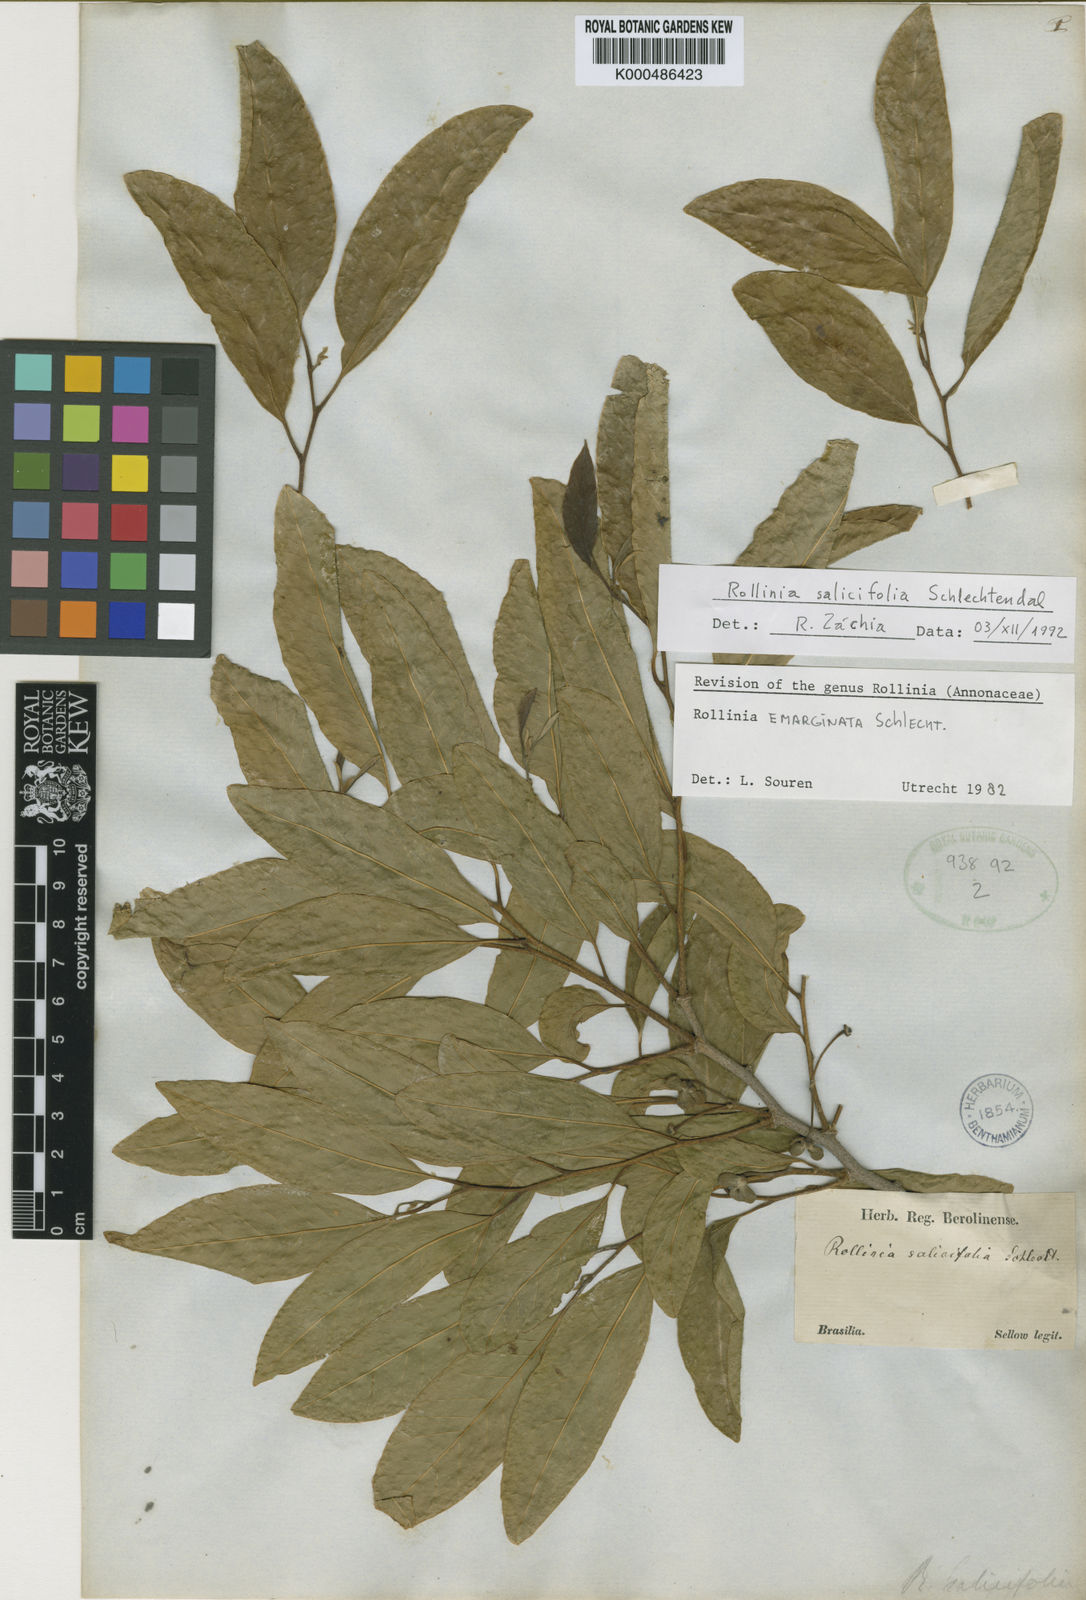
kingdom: Plantae
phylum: Tracheophyta
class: Magnoliopsida
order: Magnoliales
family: Annonaceae
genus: Annona
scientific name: Annona emarginata
